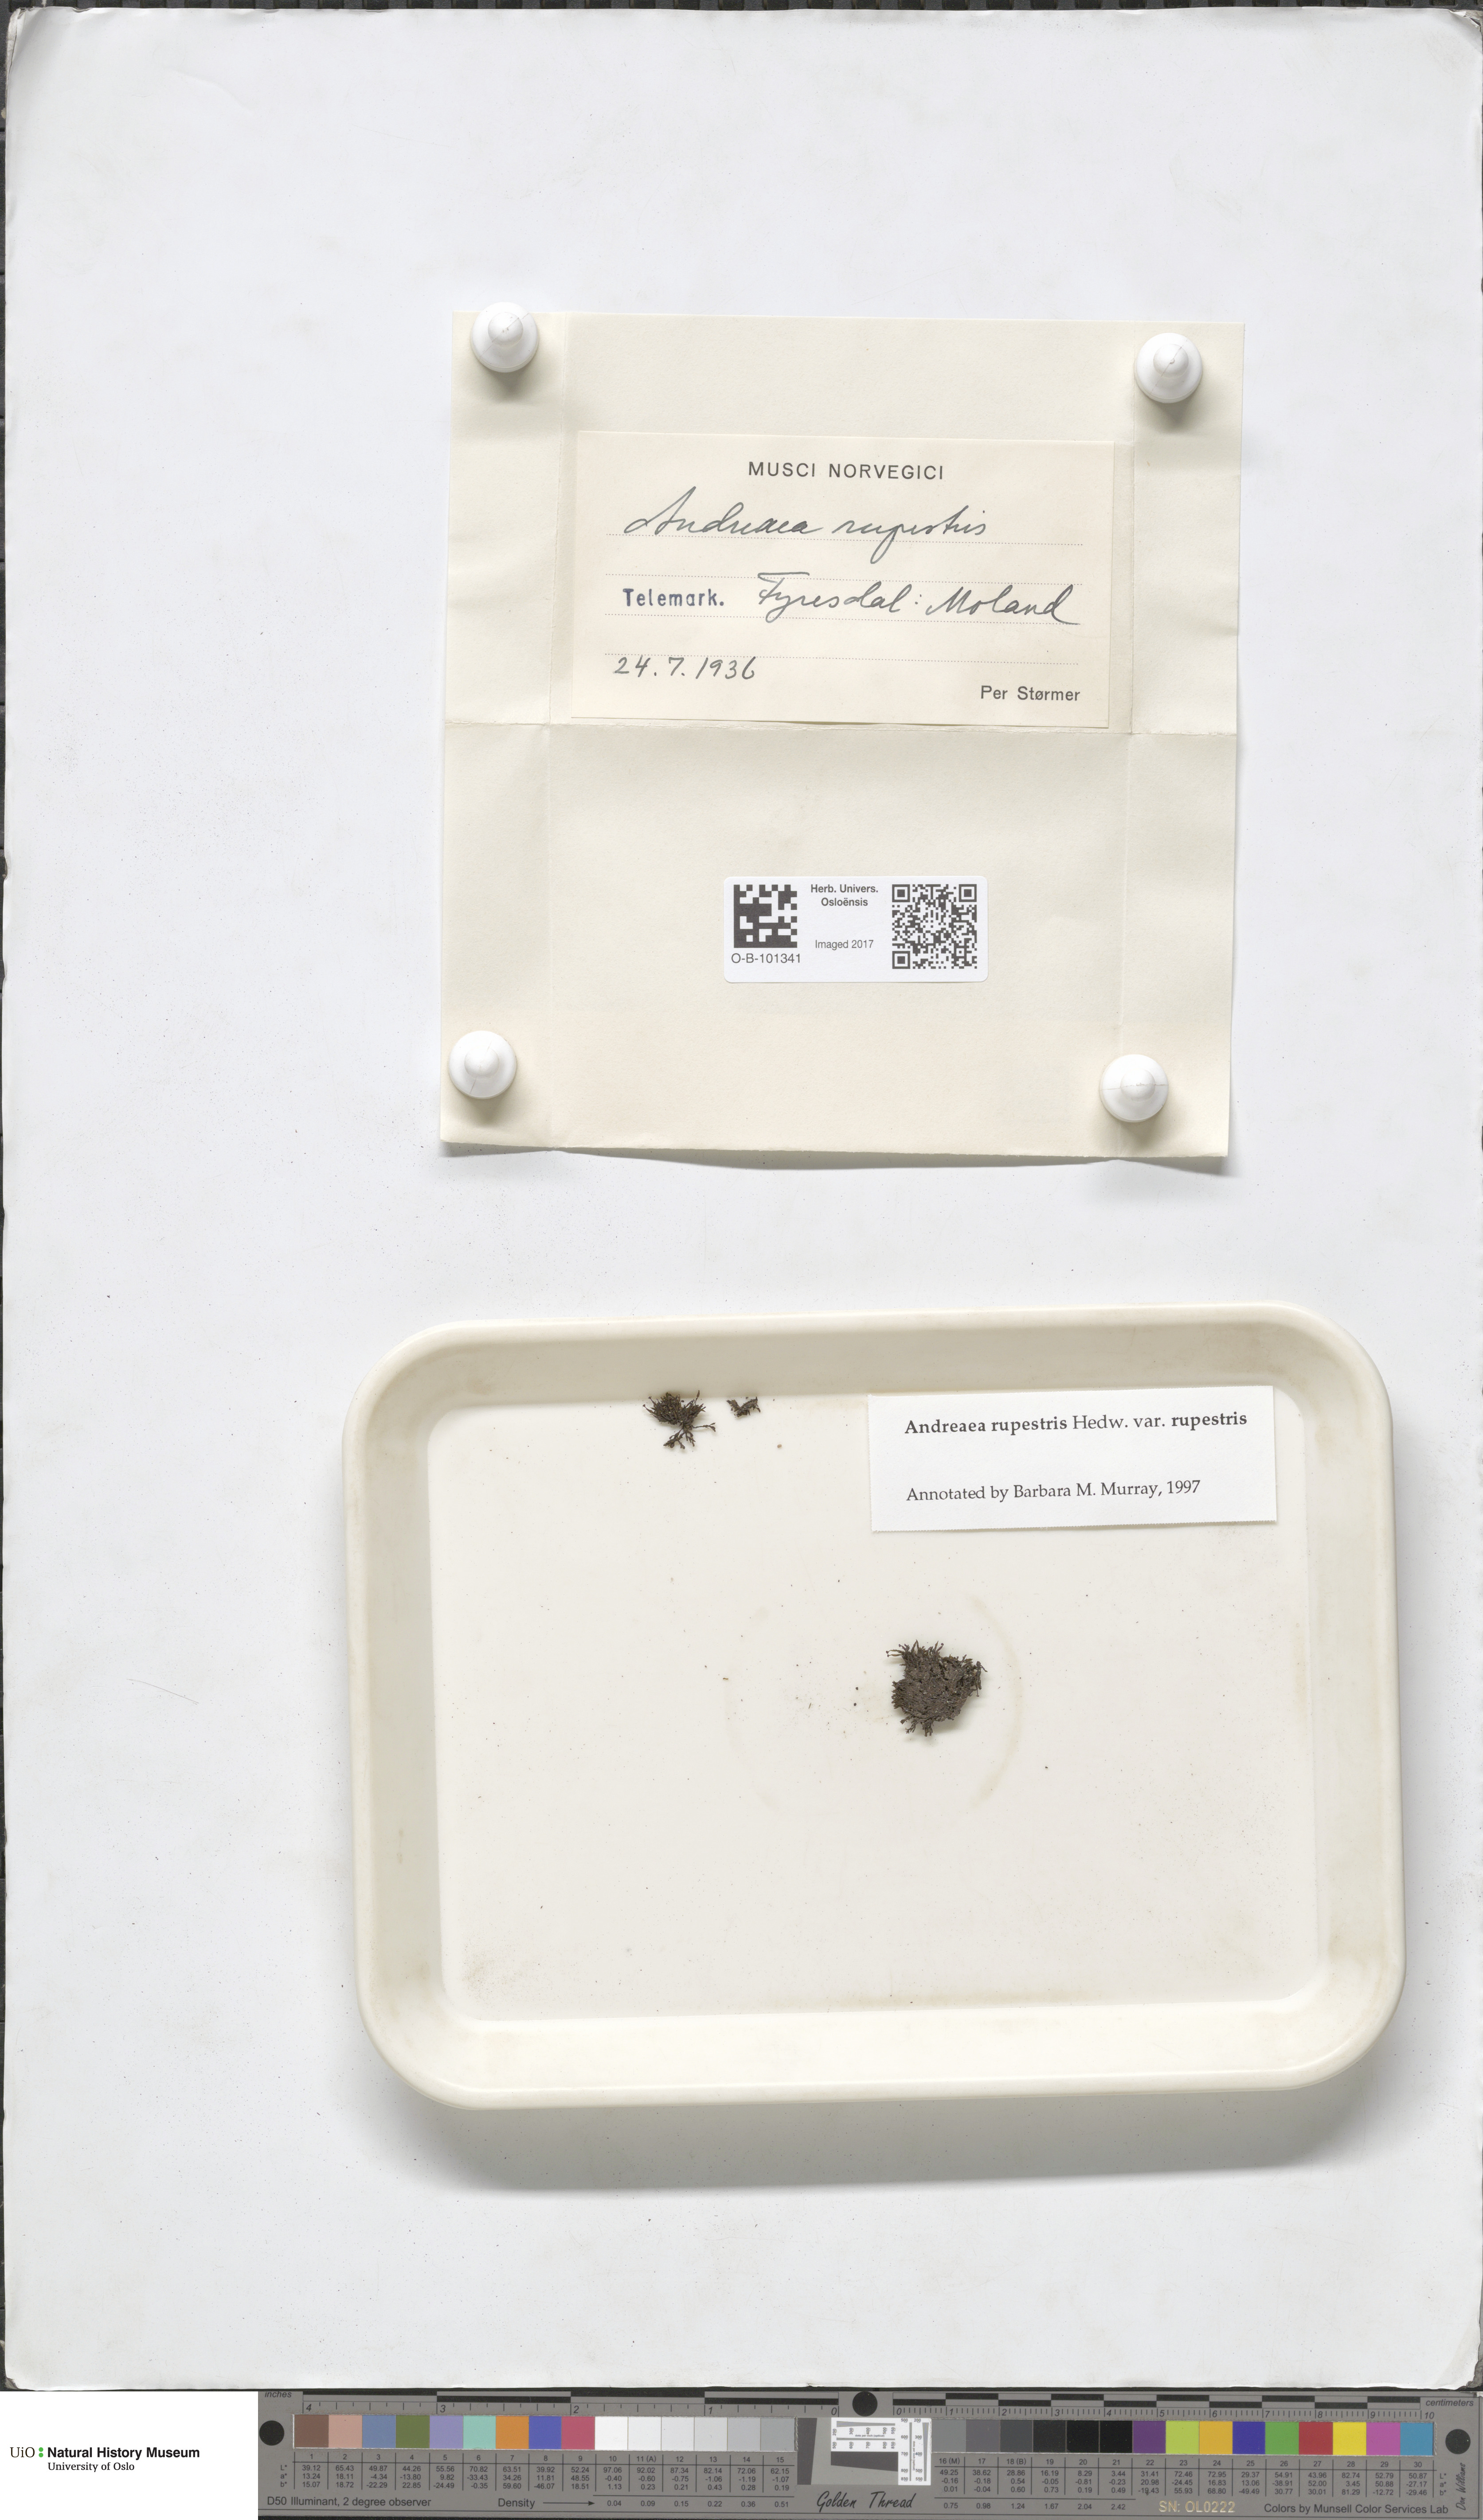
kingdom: Plantae
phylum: Bryophyta
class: Andreaeopsida
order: Andreaeales
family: Andreaeaceae
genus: Andreaea
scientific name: Andreaea rupestris
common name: Black rock moss
